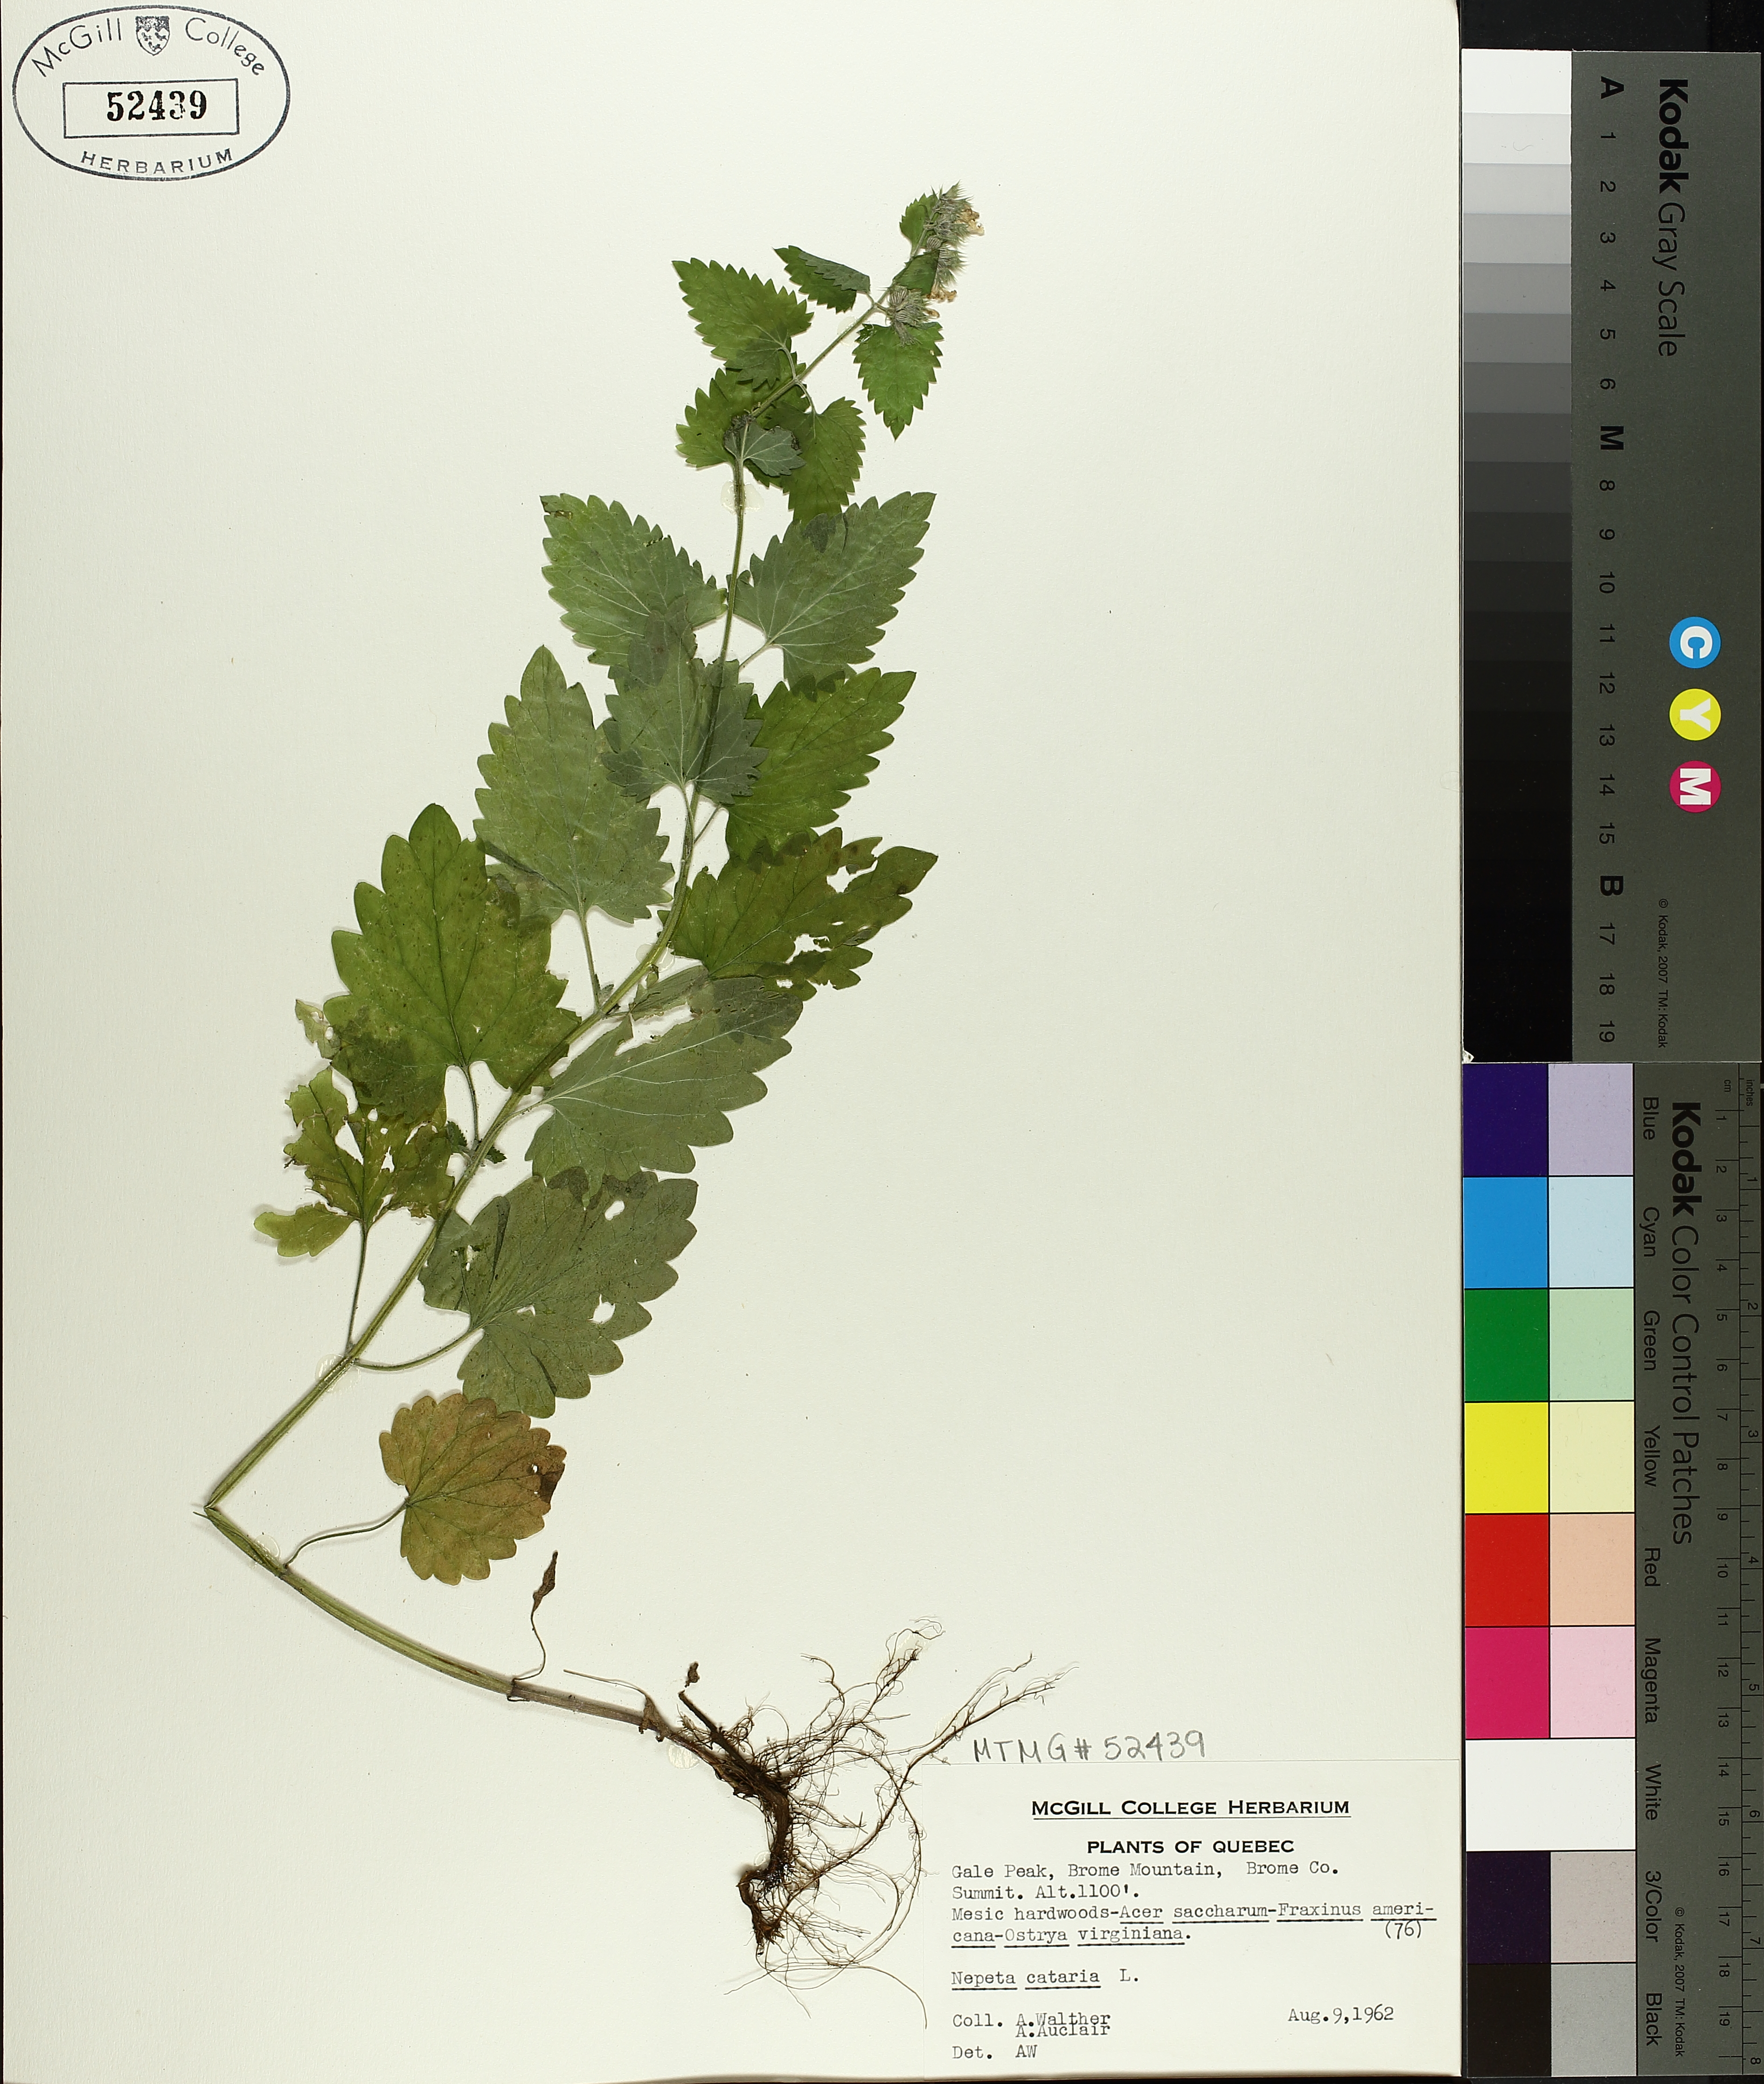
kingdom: Plantae
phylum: Tracheophyta
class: Magnoliopsida
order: Lamiales
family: Lamiaceae
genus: Nepeta
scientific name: Nepeta cataria
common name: Catnip
